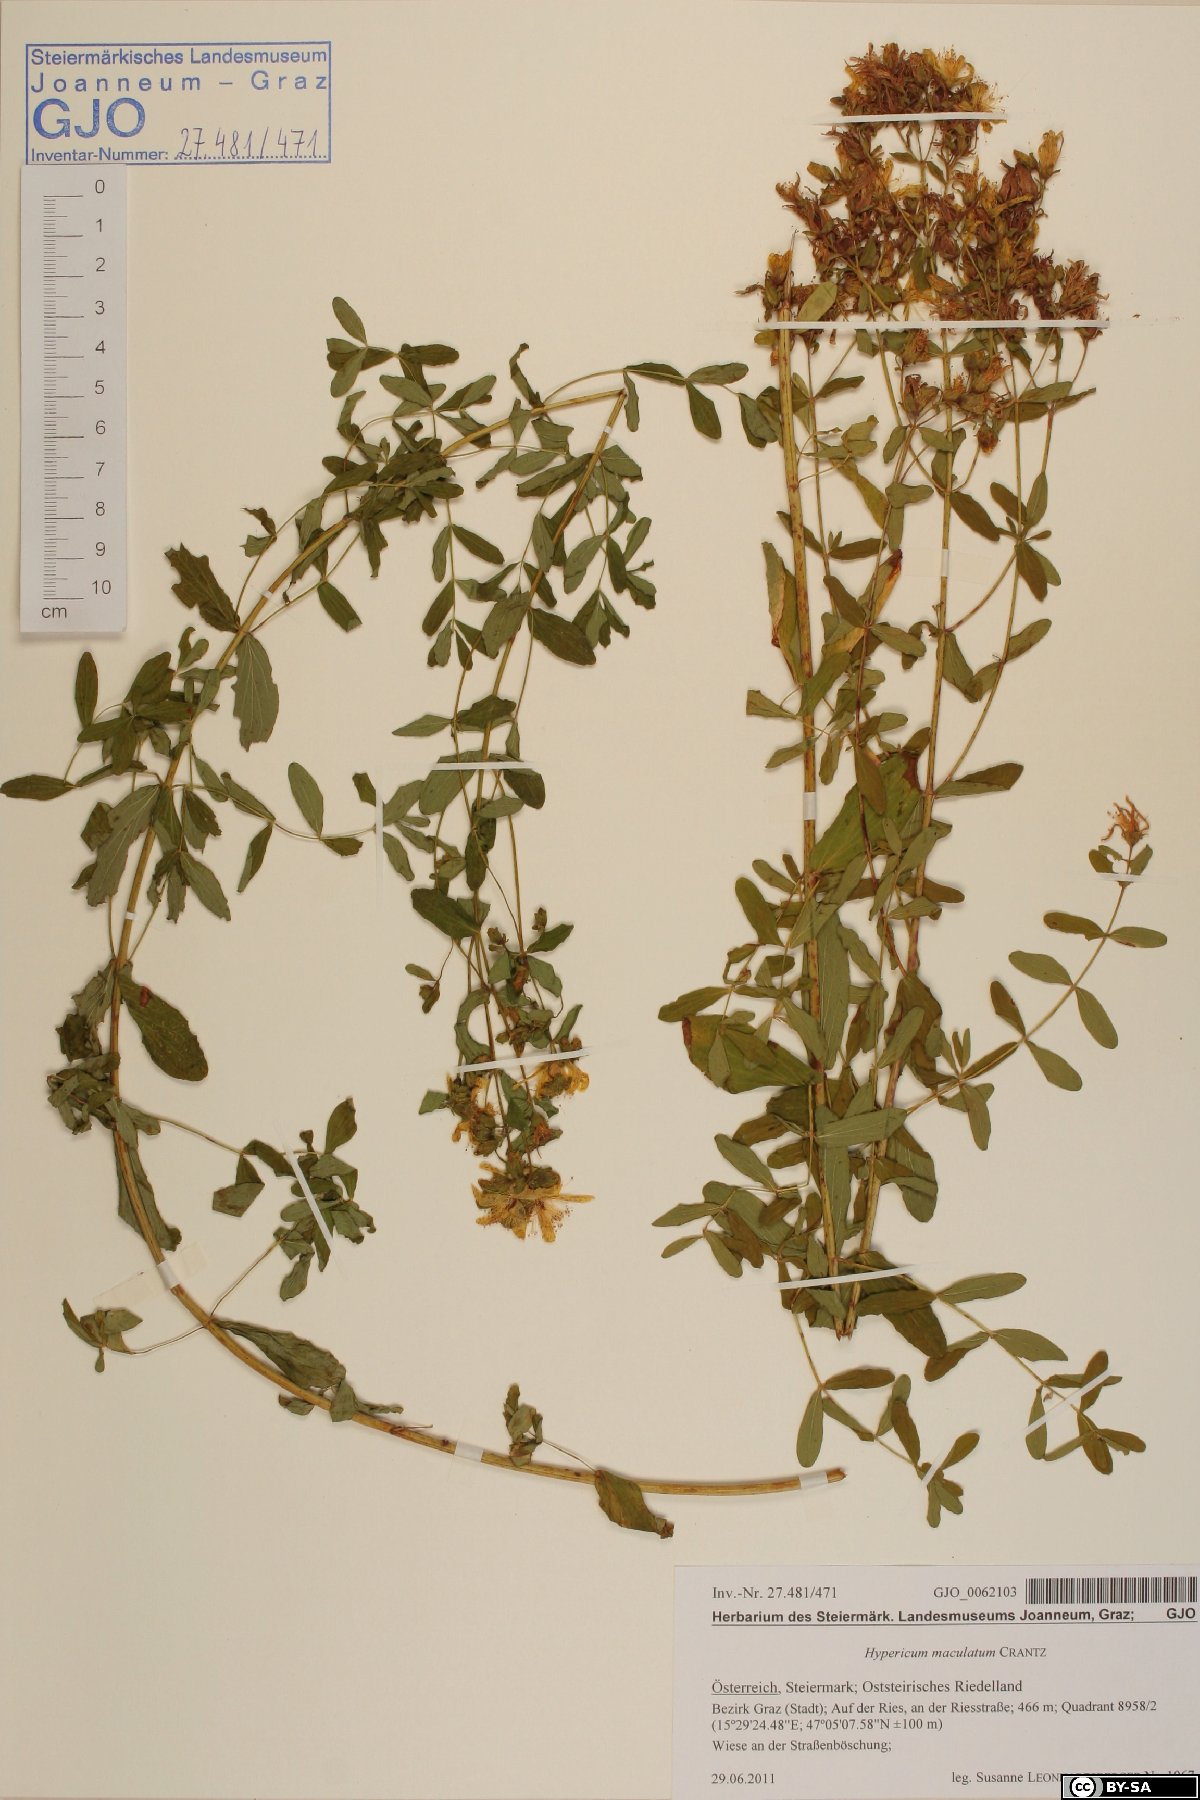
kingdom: Plantae
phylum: Tracheophyta
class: Magnoliopsida
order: Malpighiales
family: Hypericaceae
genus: Hypericum
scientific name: Hypericum maculatum
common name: Imperforate st. john's-wort
